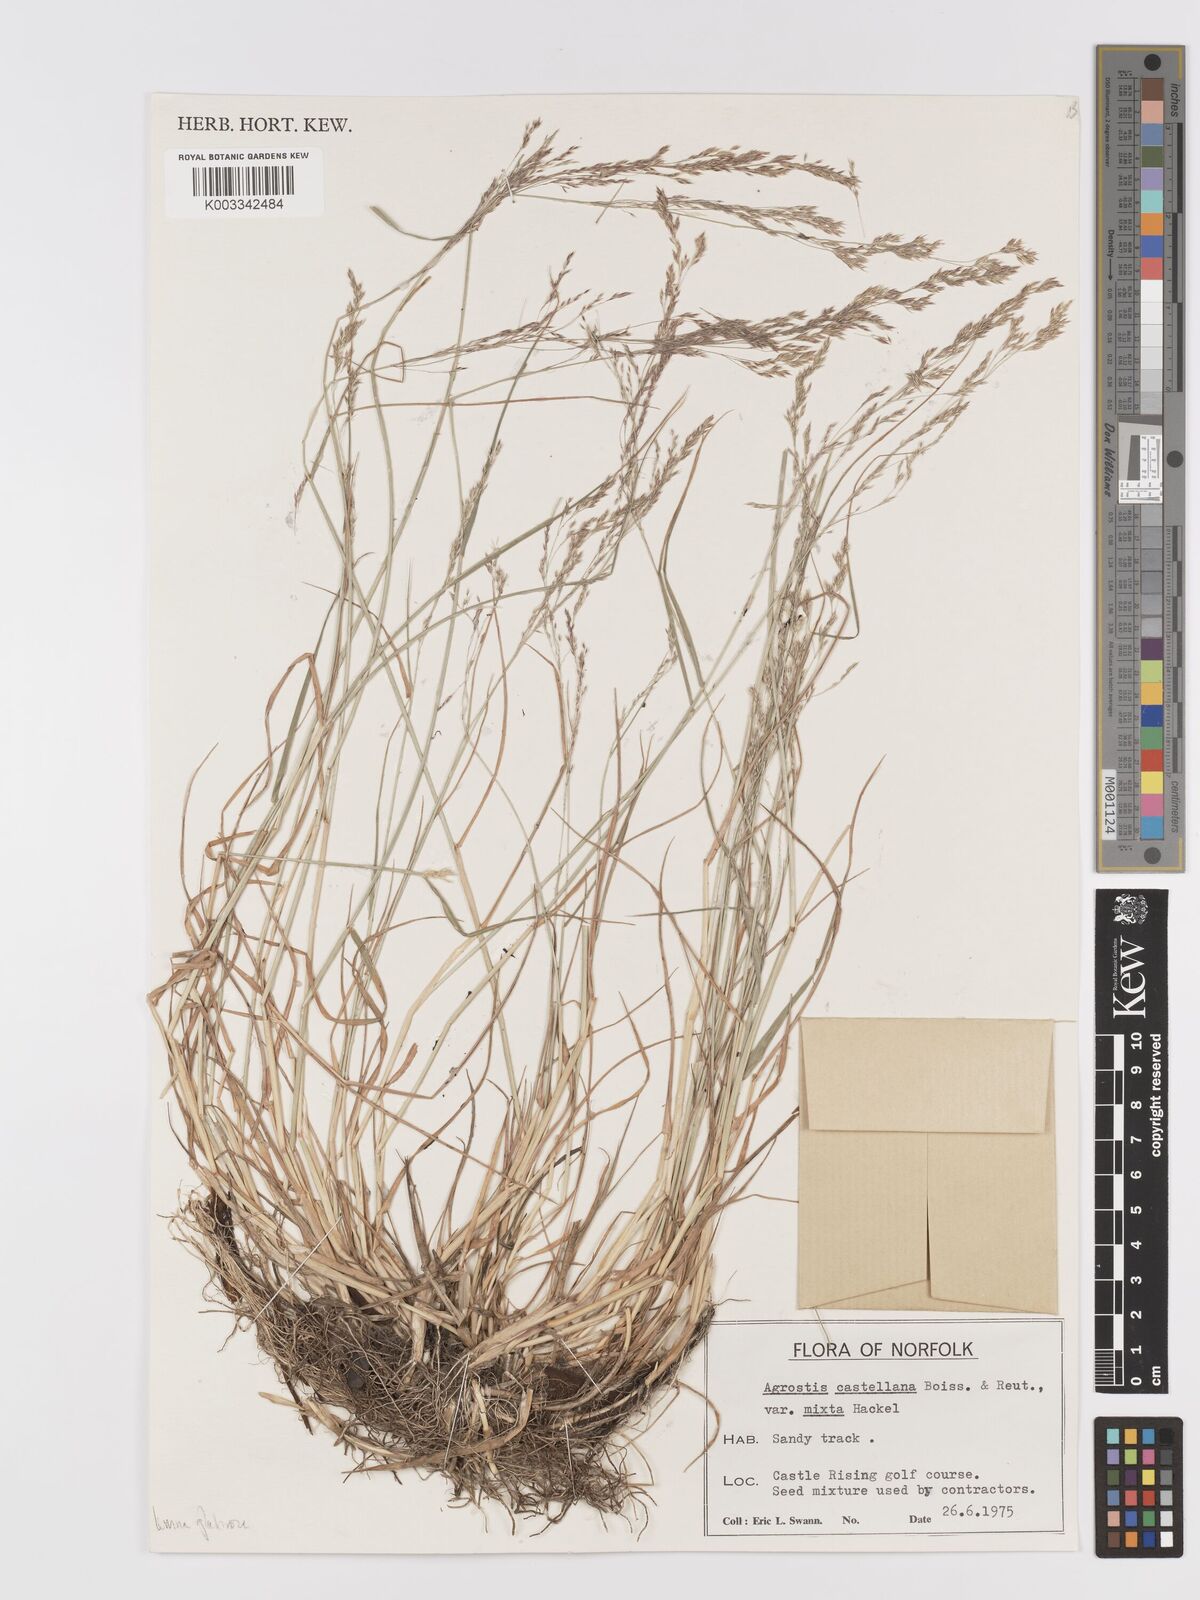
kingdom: Plantae
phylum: Tracheophyta
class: Liliopsida
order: Poales
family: Poaceae
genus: Agrostis
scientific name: Agrostis castellana
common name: Highland bent
